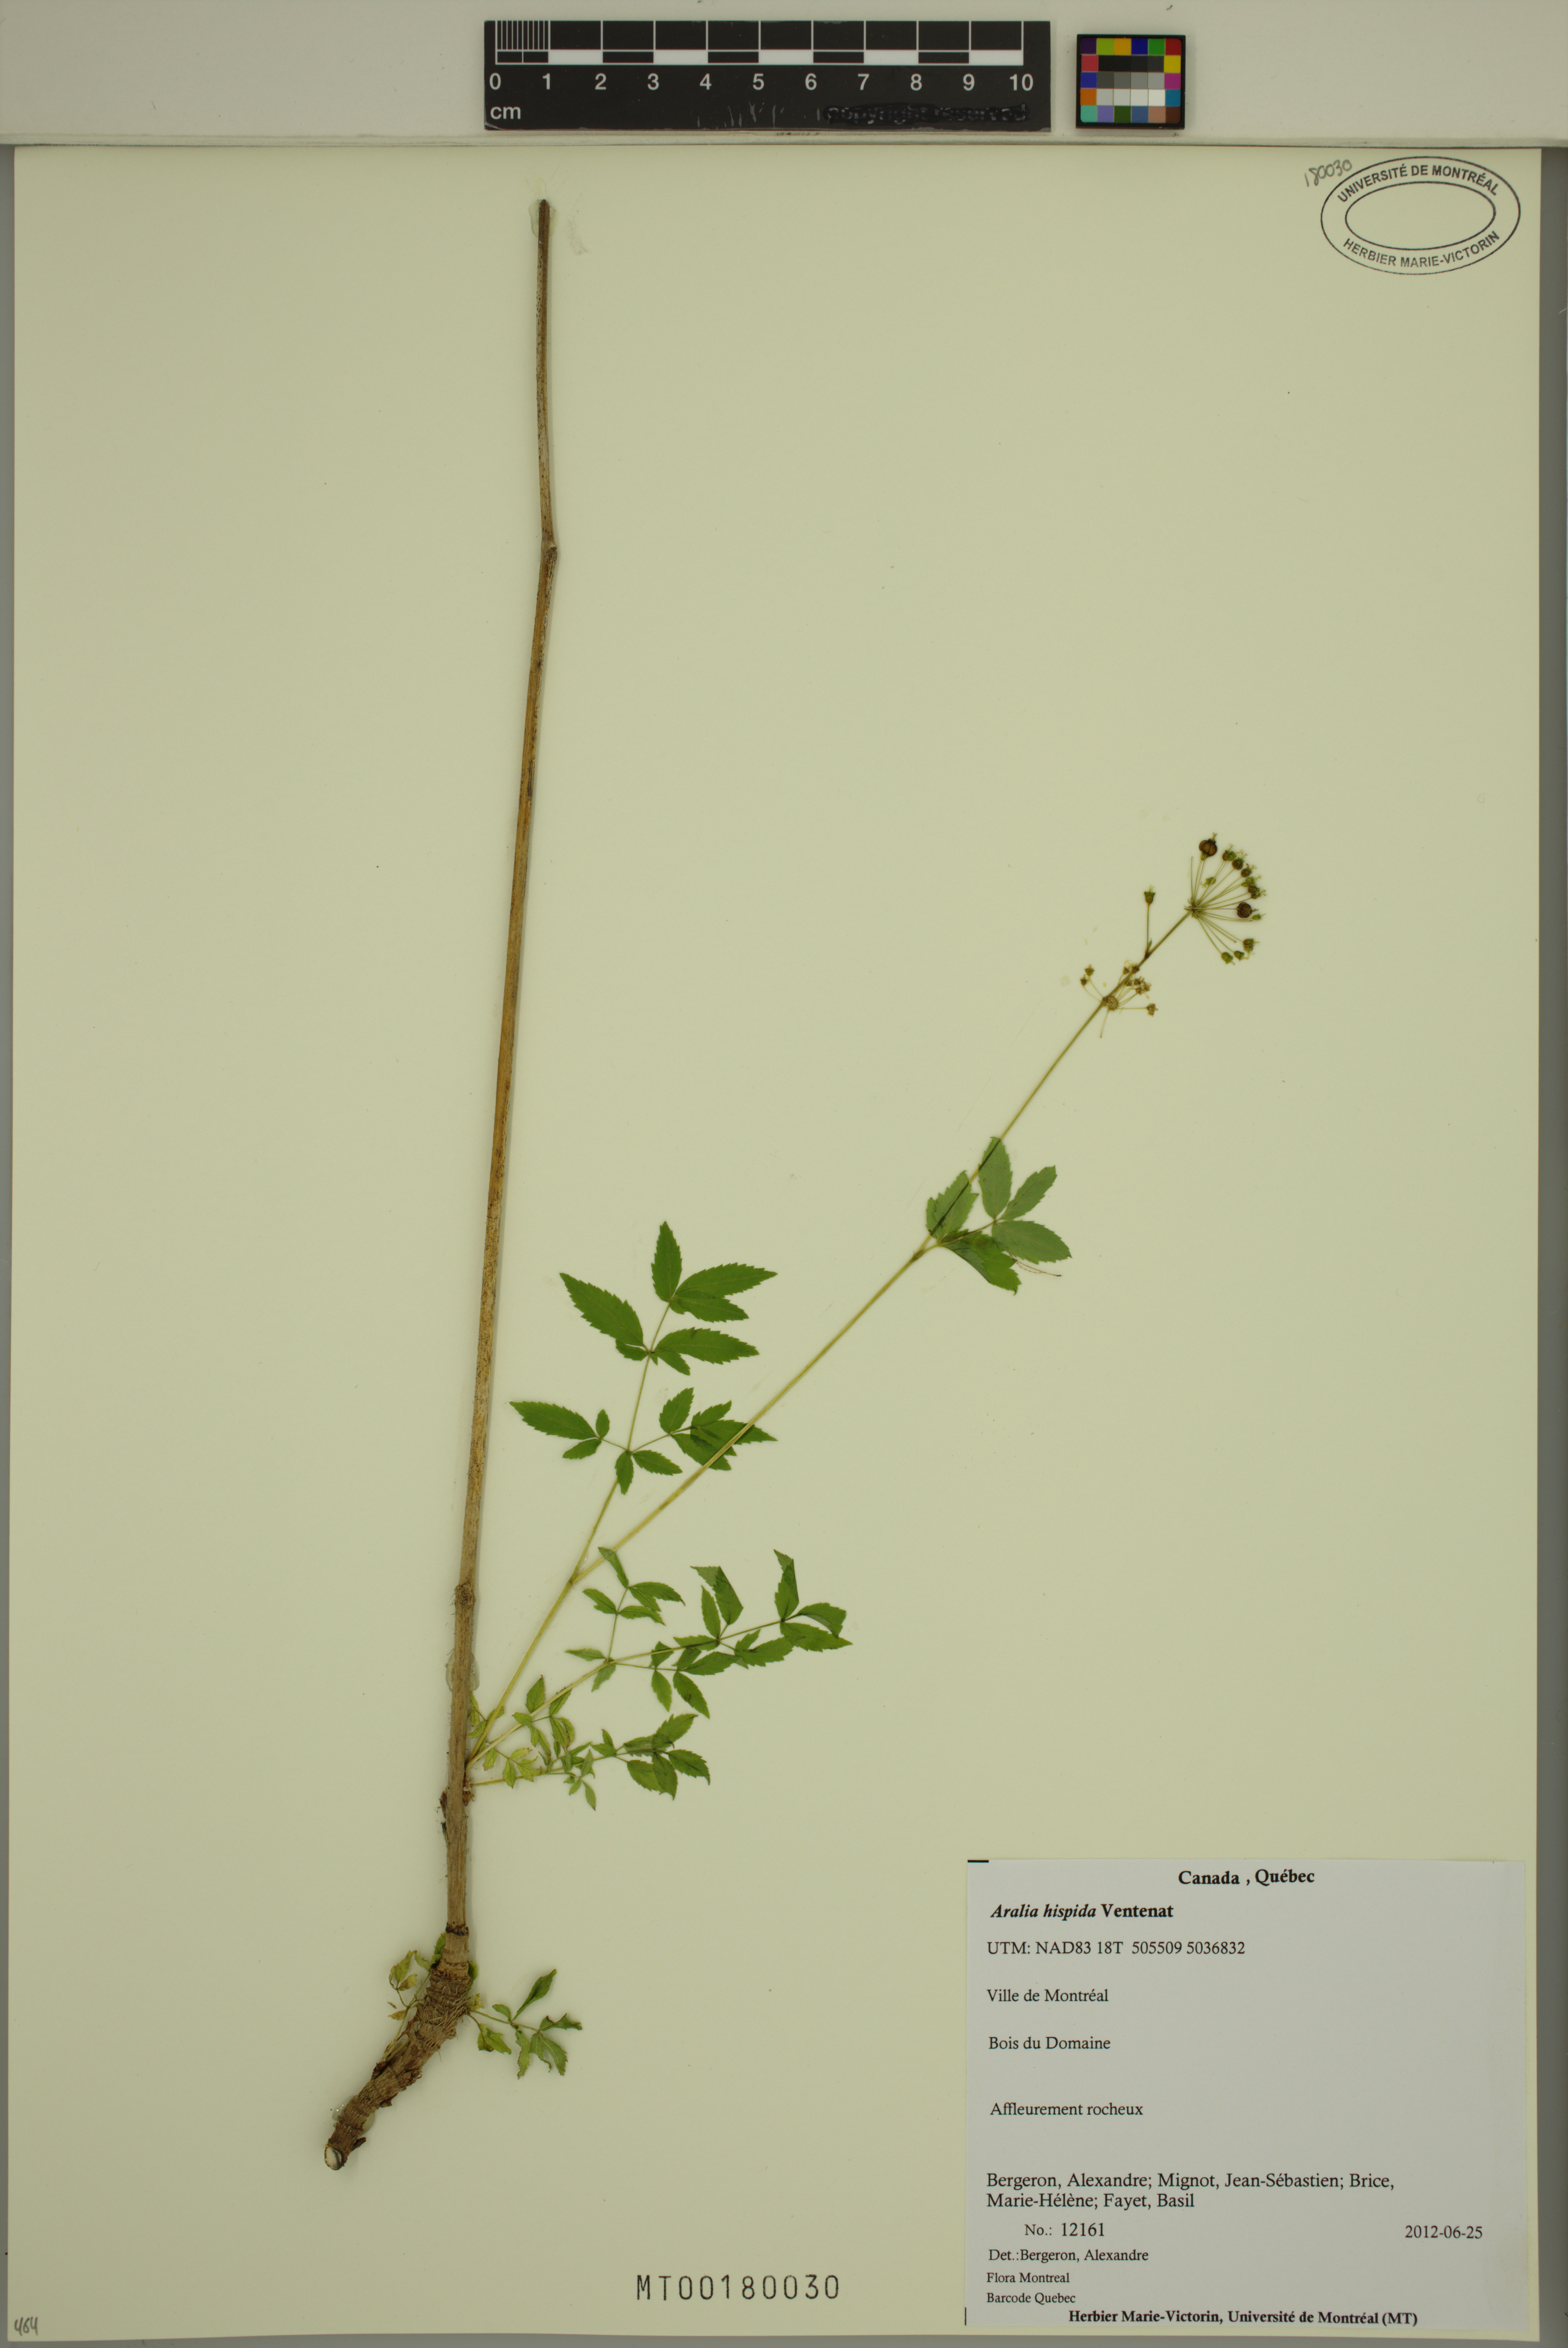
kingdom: Plantae
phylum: Tracheophyta
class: Magnoliopsida
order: Apiales
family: Araliaceae
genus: Aralia
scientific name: Aralia hispida
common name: Bristly sarsaparilla
